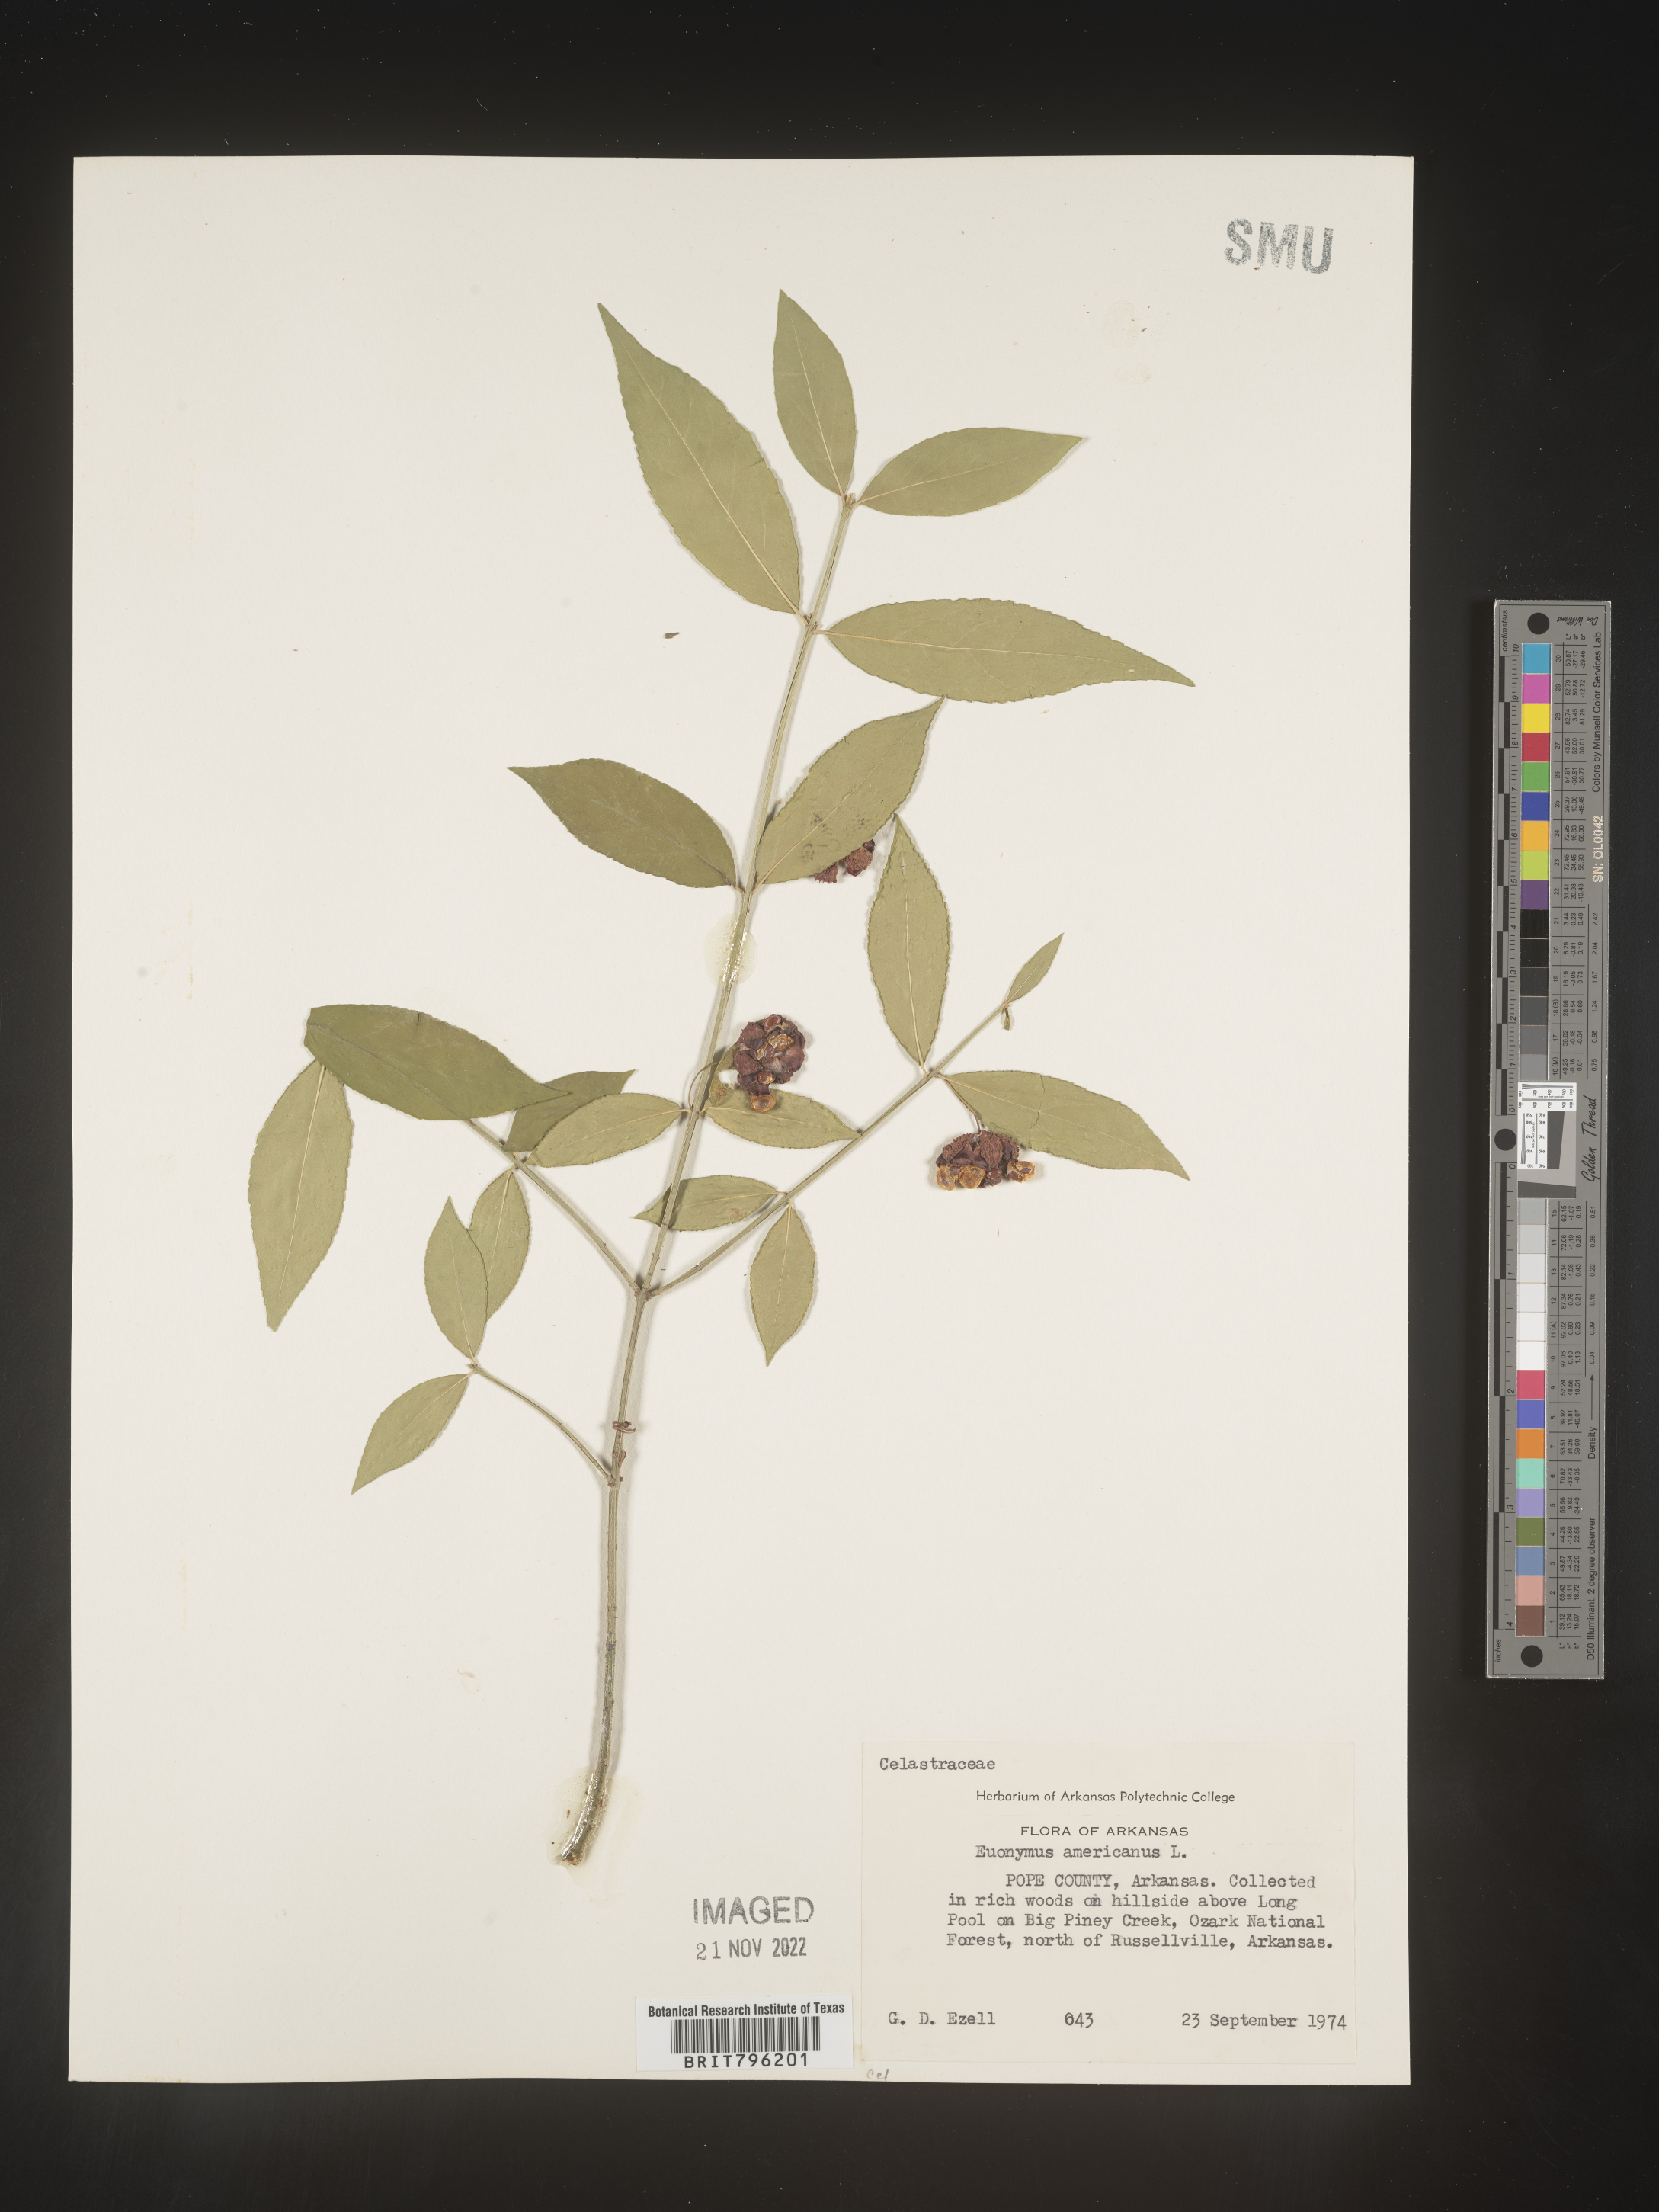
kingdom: Plantae
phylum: Tracheophyta
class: Magnoliopsida
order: Celastrales
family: Celastraceae
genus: Euonymus
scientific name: Euonymus americanus
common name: Bursting-heart
